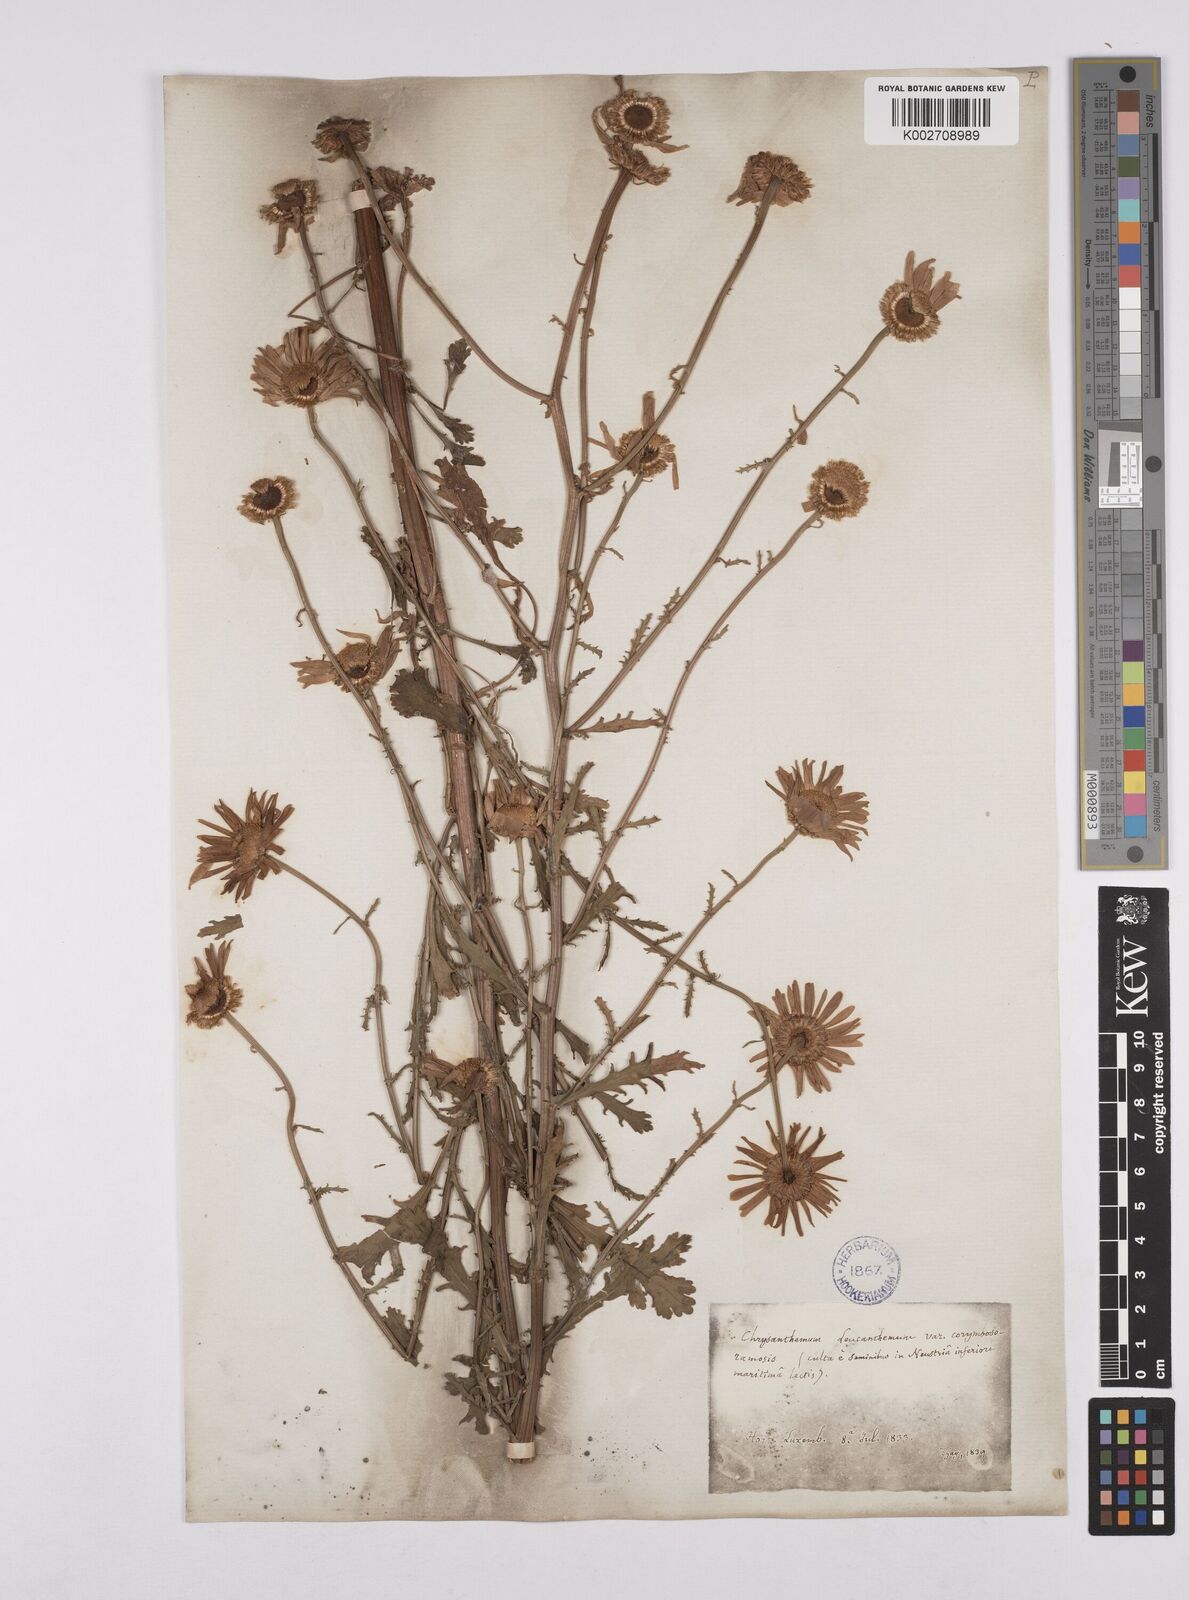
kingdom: Plantae
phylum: Tracheophyta
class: Magnoliopsida
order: Asterales
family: Asteraceae
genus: Leucanthemum
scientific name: Leucanthemum vulgare
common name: Oxeye daisy
